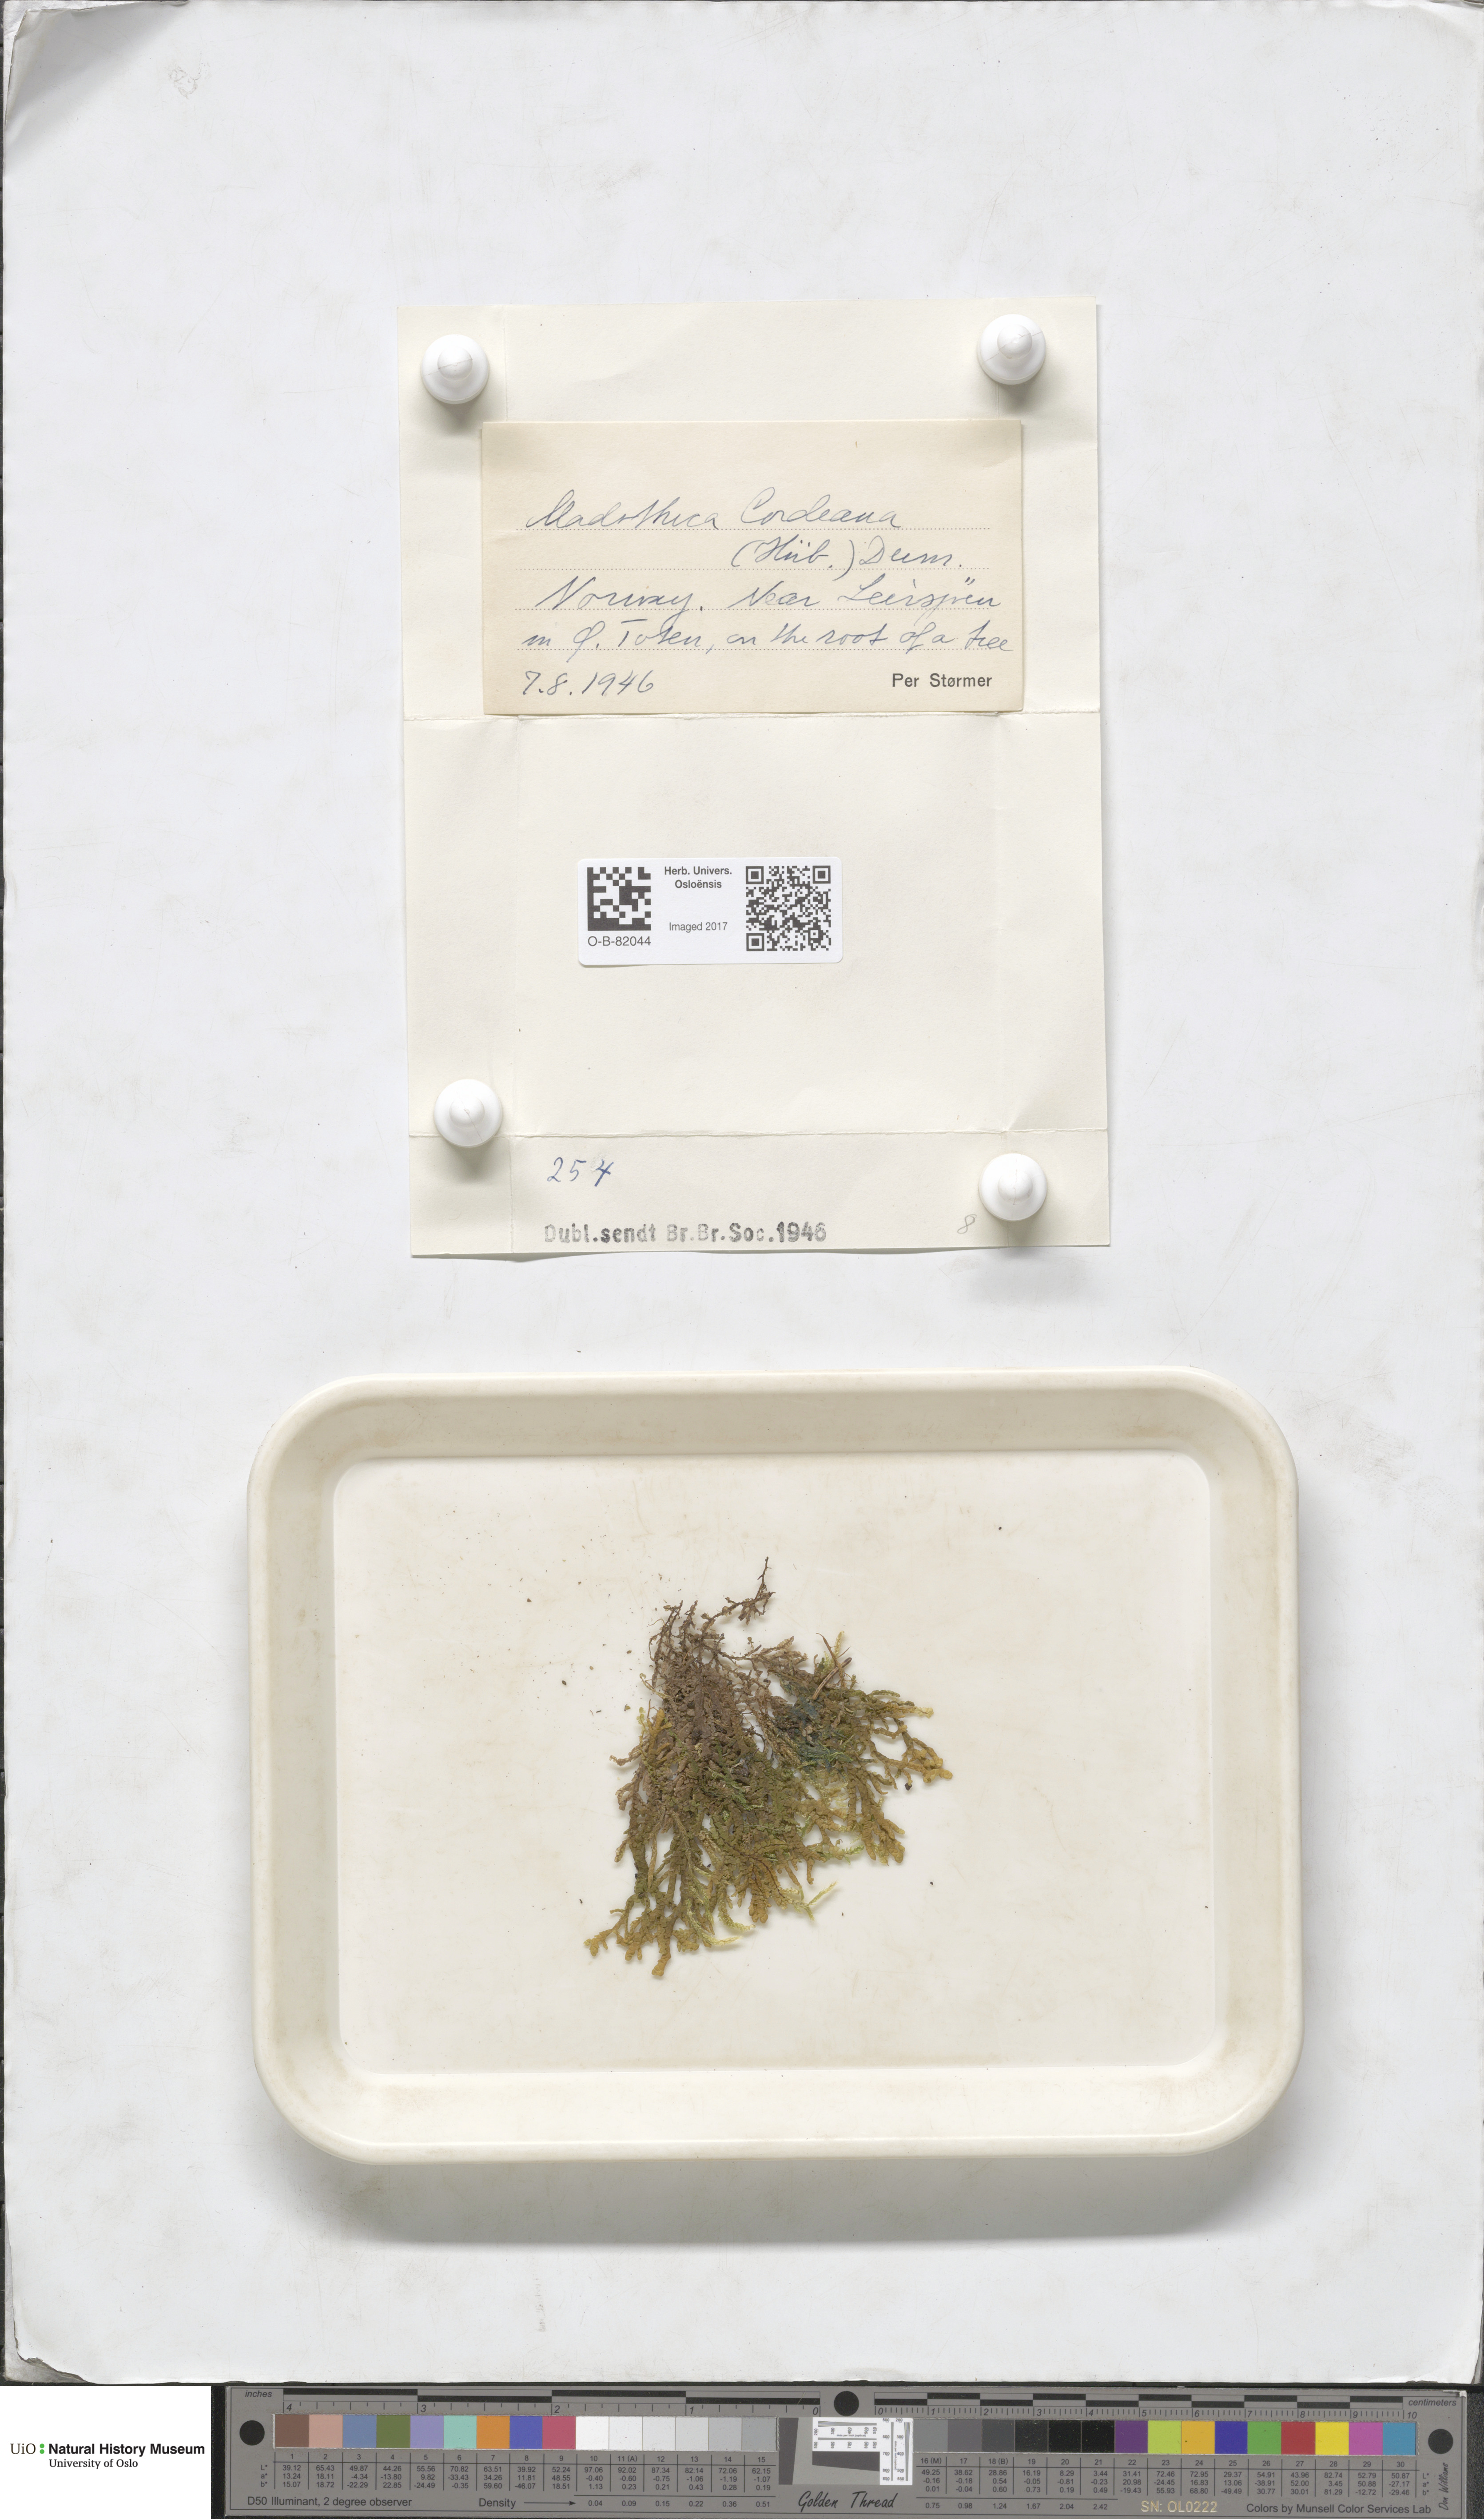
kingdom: Plantae
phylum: Marchantiophyta
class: Jungermanniopsida
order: Porellales
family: Porellaceae
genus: Porella
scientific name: Porella cordaeana
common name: Cliff scalewort
